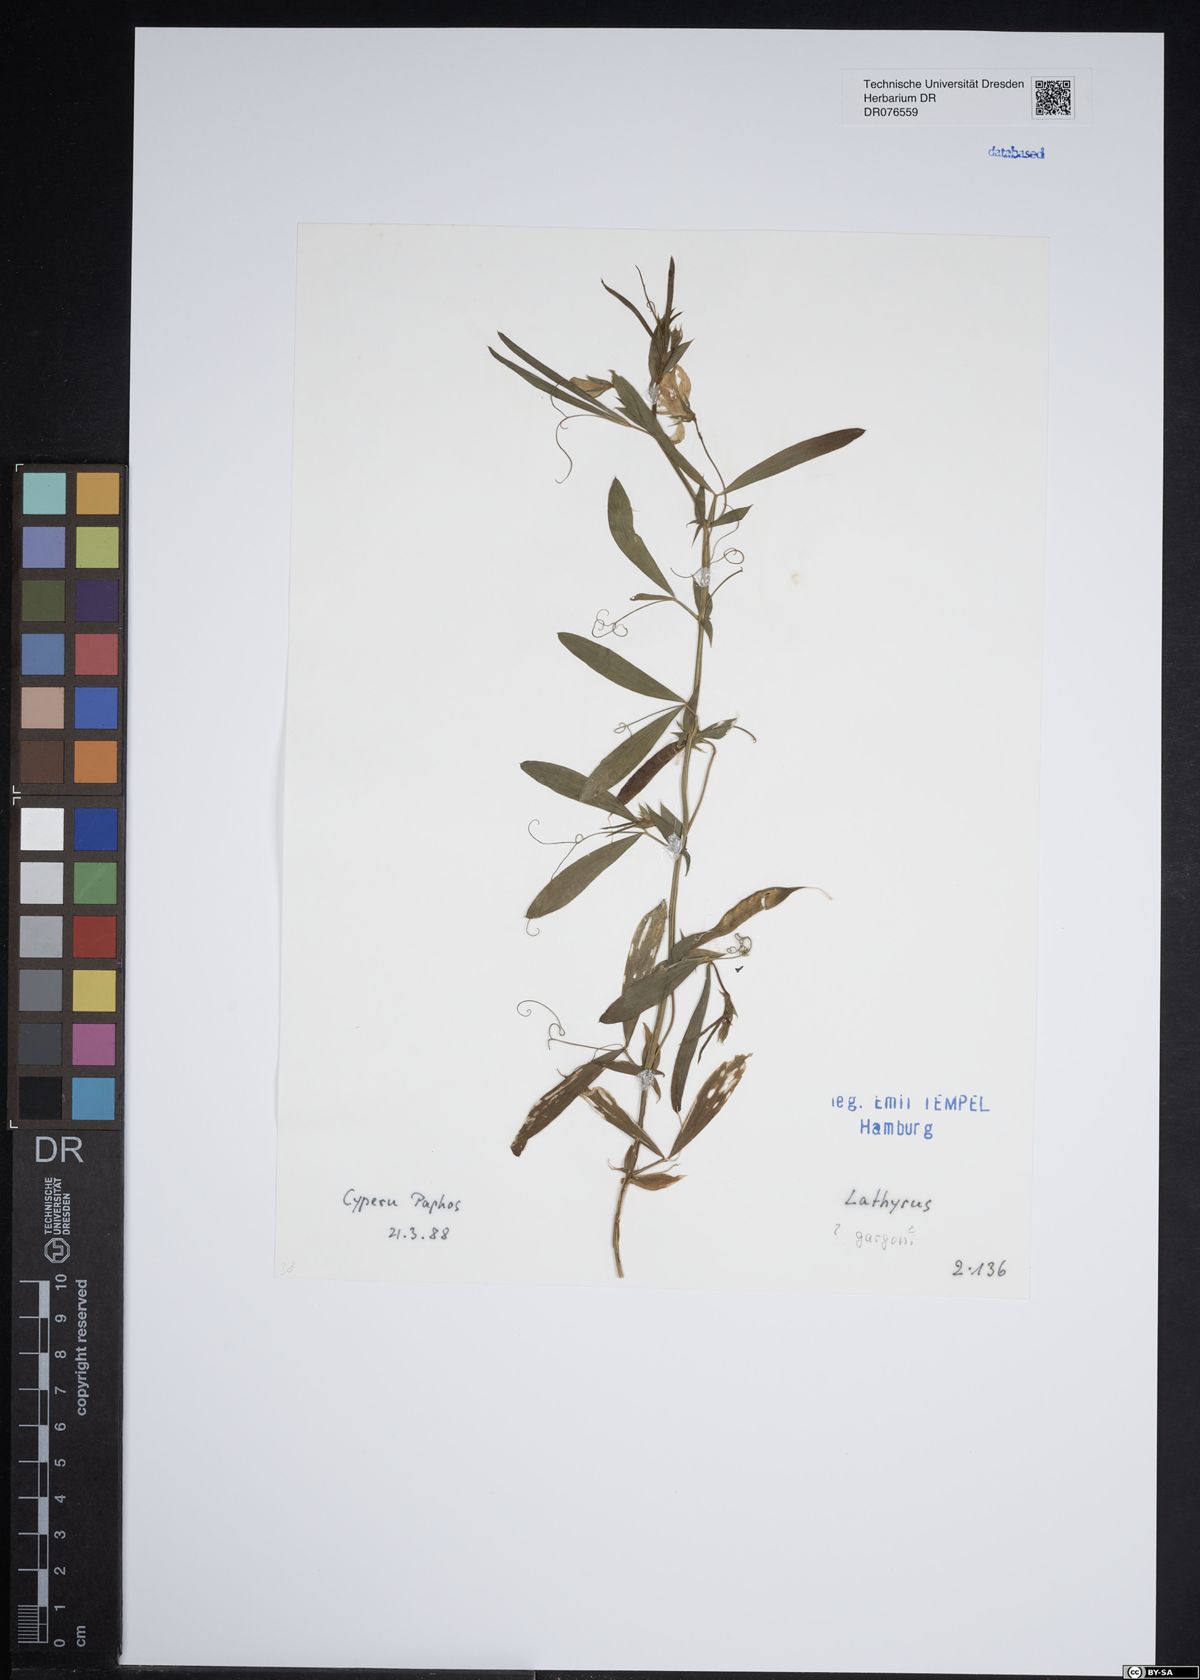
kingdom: Plantae
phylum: Tracheophyta
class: Magnoliopsida
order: Fabales
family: Fabaceae
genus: Lathyrus
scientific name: Lathyrus gorgoni
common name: Rare pea
